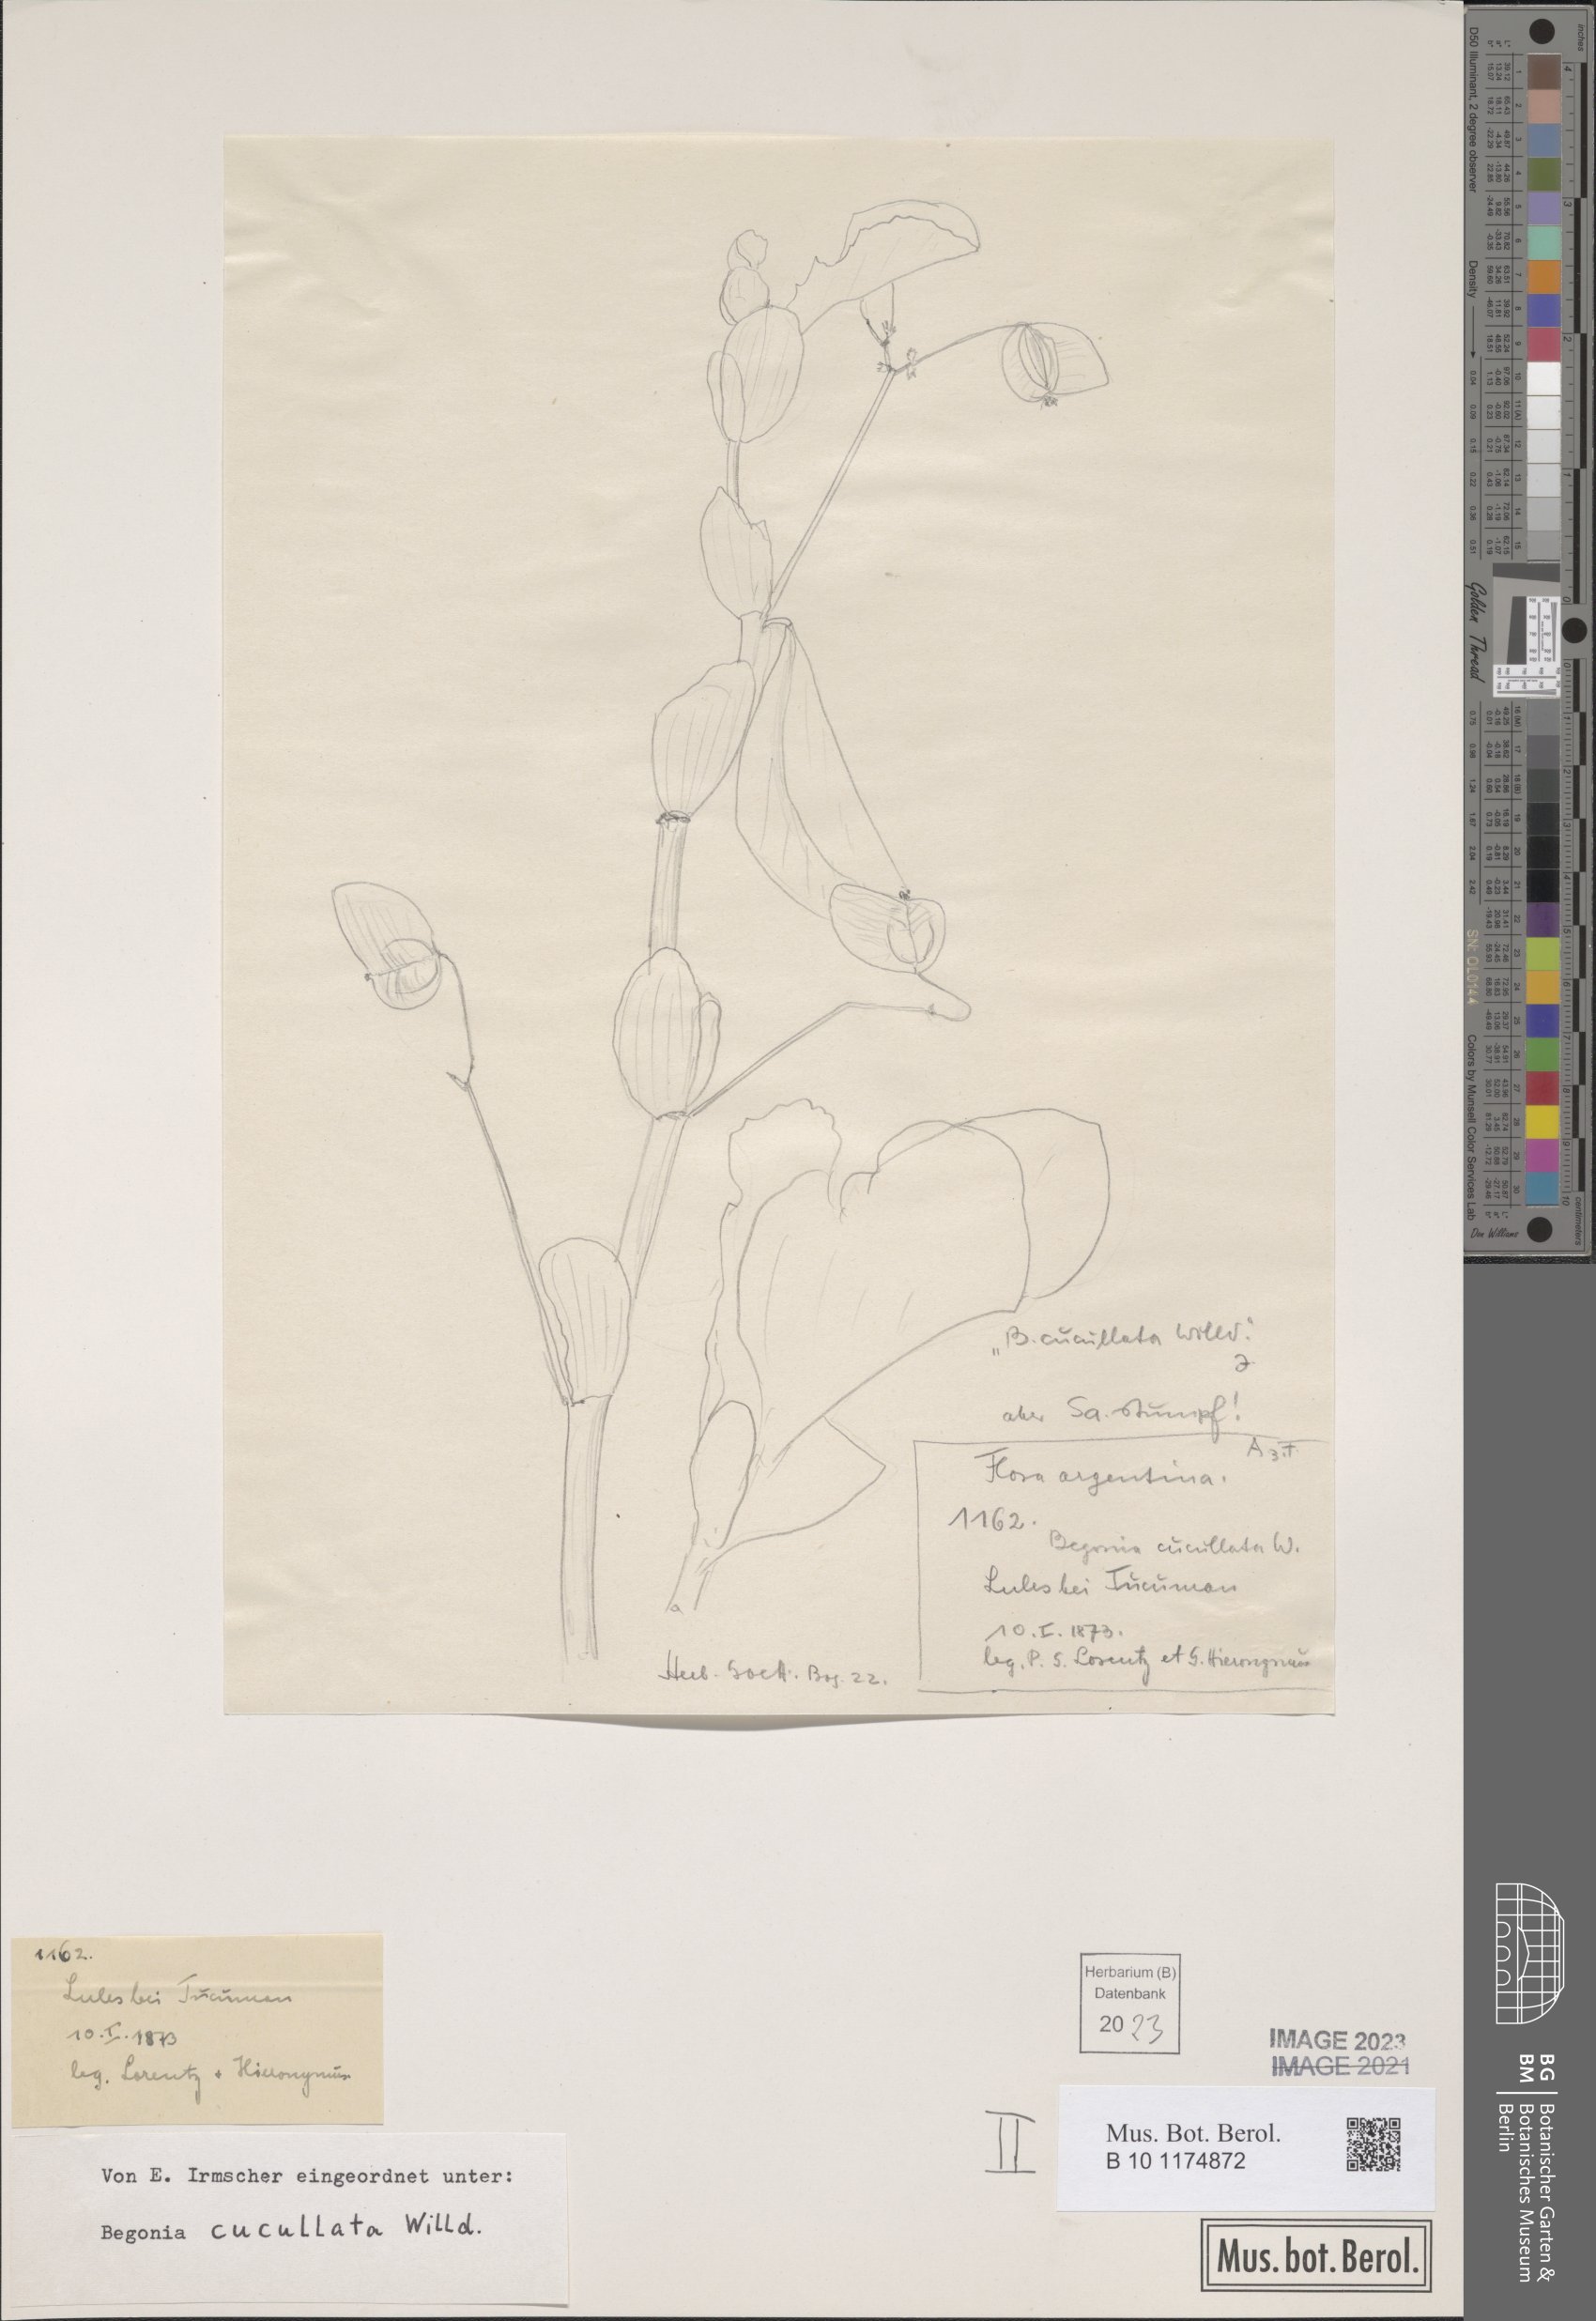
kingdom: Plantae
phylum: Tracheophyta
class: Magnoliopsida
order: Cucurbitales
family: Begoniaceae
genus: Begonia
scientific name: Begonia cucullata
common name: Clubbed begonia
